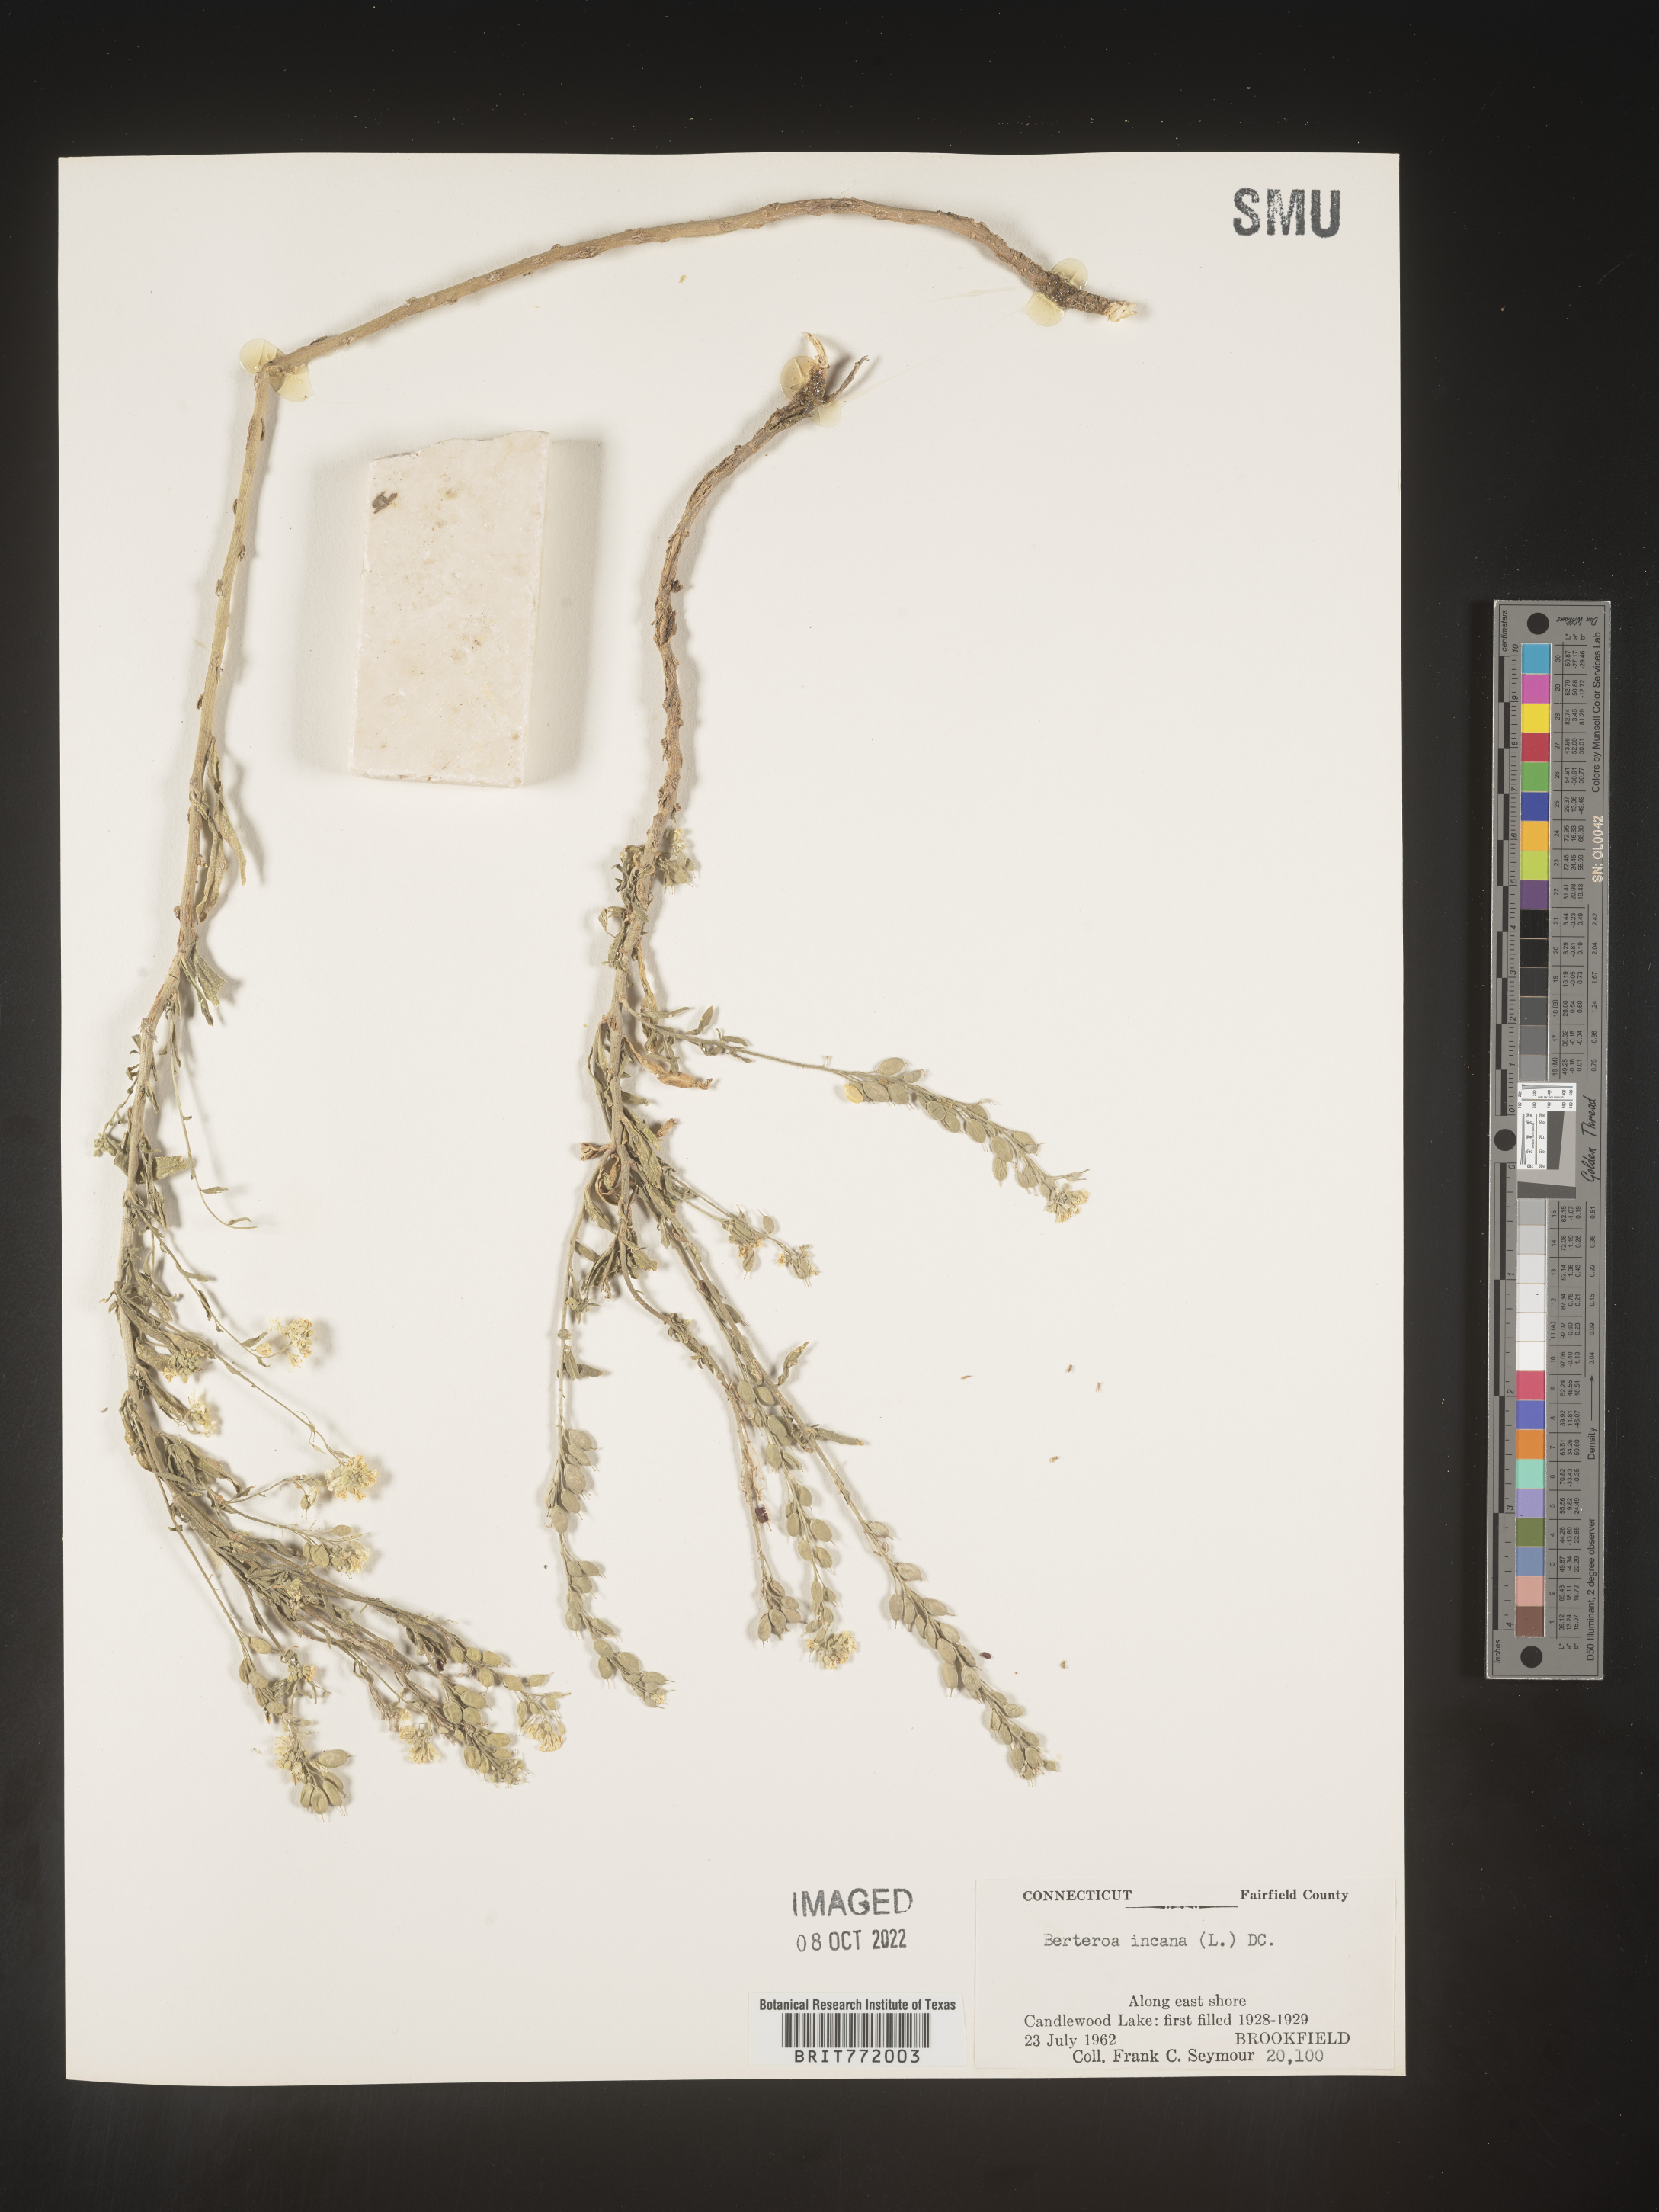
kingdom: Plantae
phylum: Tracheophyta
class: Magnoliopsida
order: Brassicales
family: Brassicaceae
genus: Berteroa
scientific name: Berteroa incana
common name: Hoary alison
